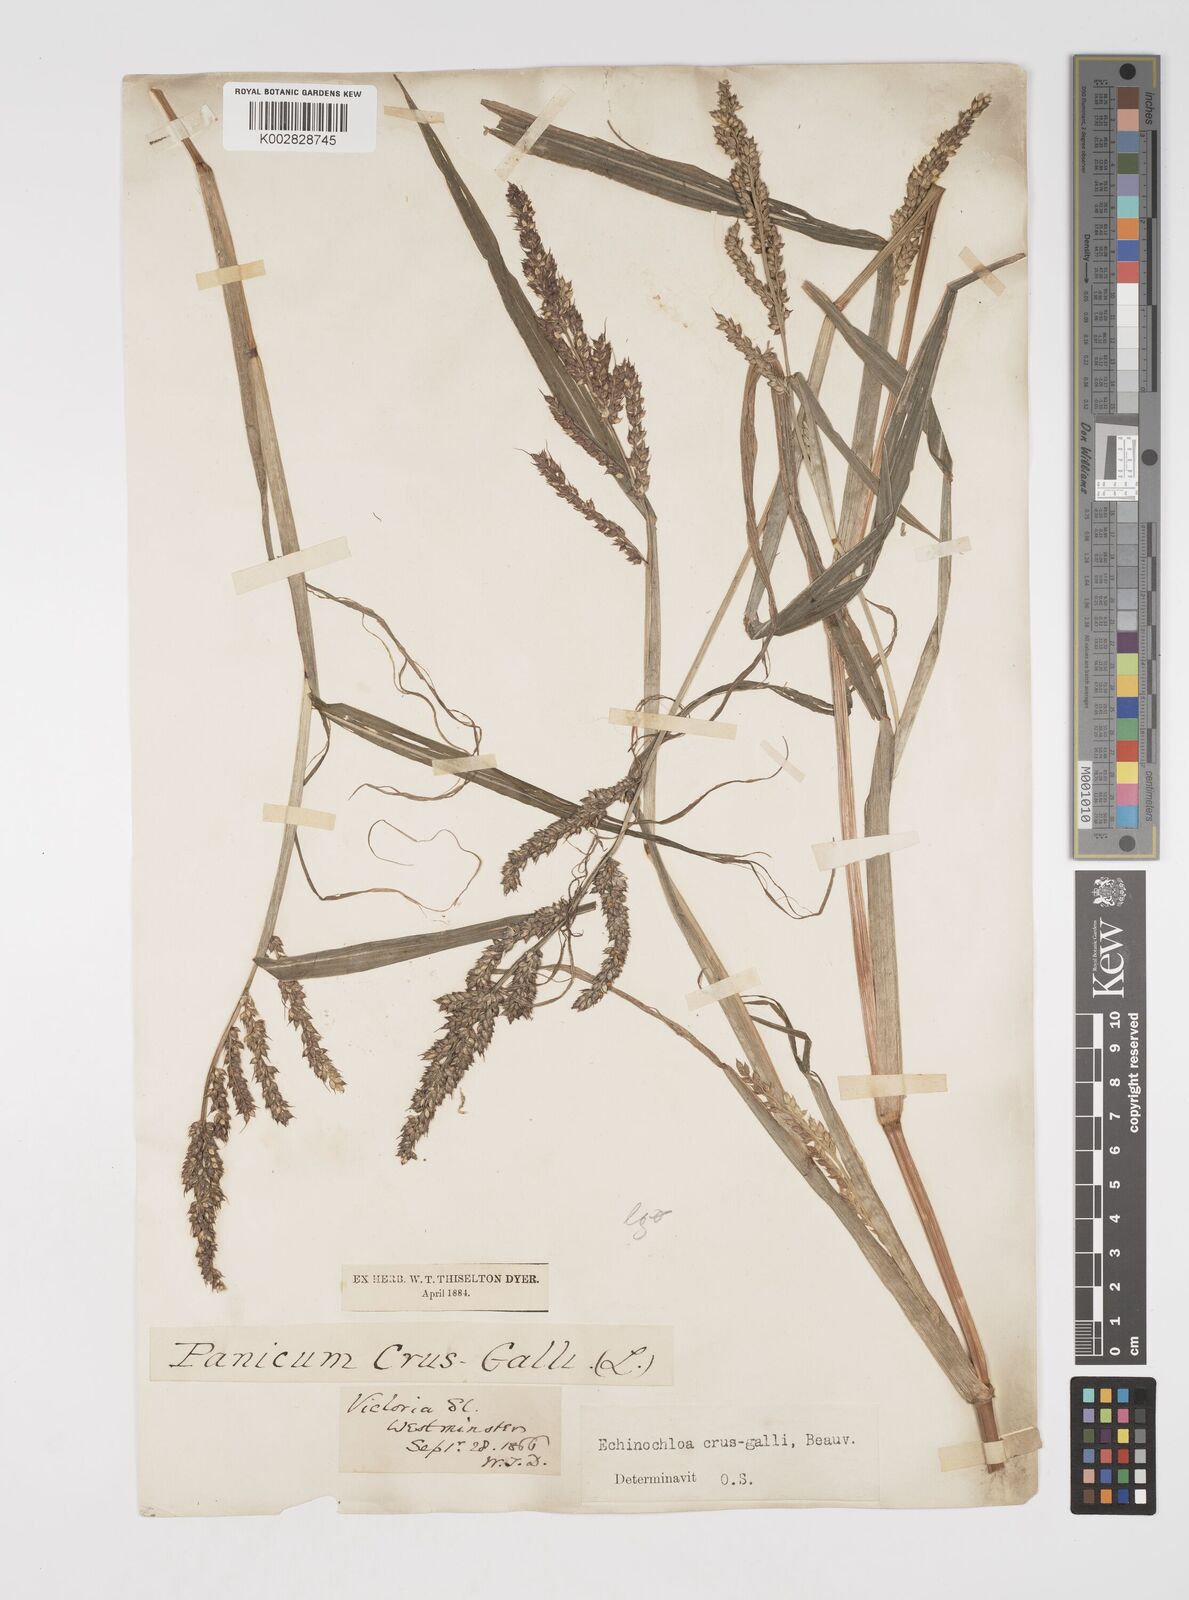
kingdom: Plantae
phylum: Tracheophyta
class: Liliopsida
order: Poales
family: Poaceae
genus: Echinochloa
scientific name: Echinochloa crus-galli
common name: Cockspur
